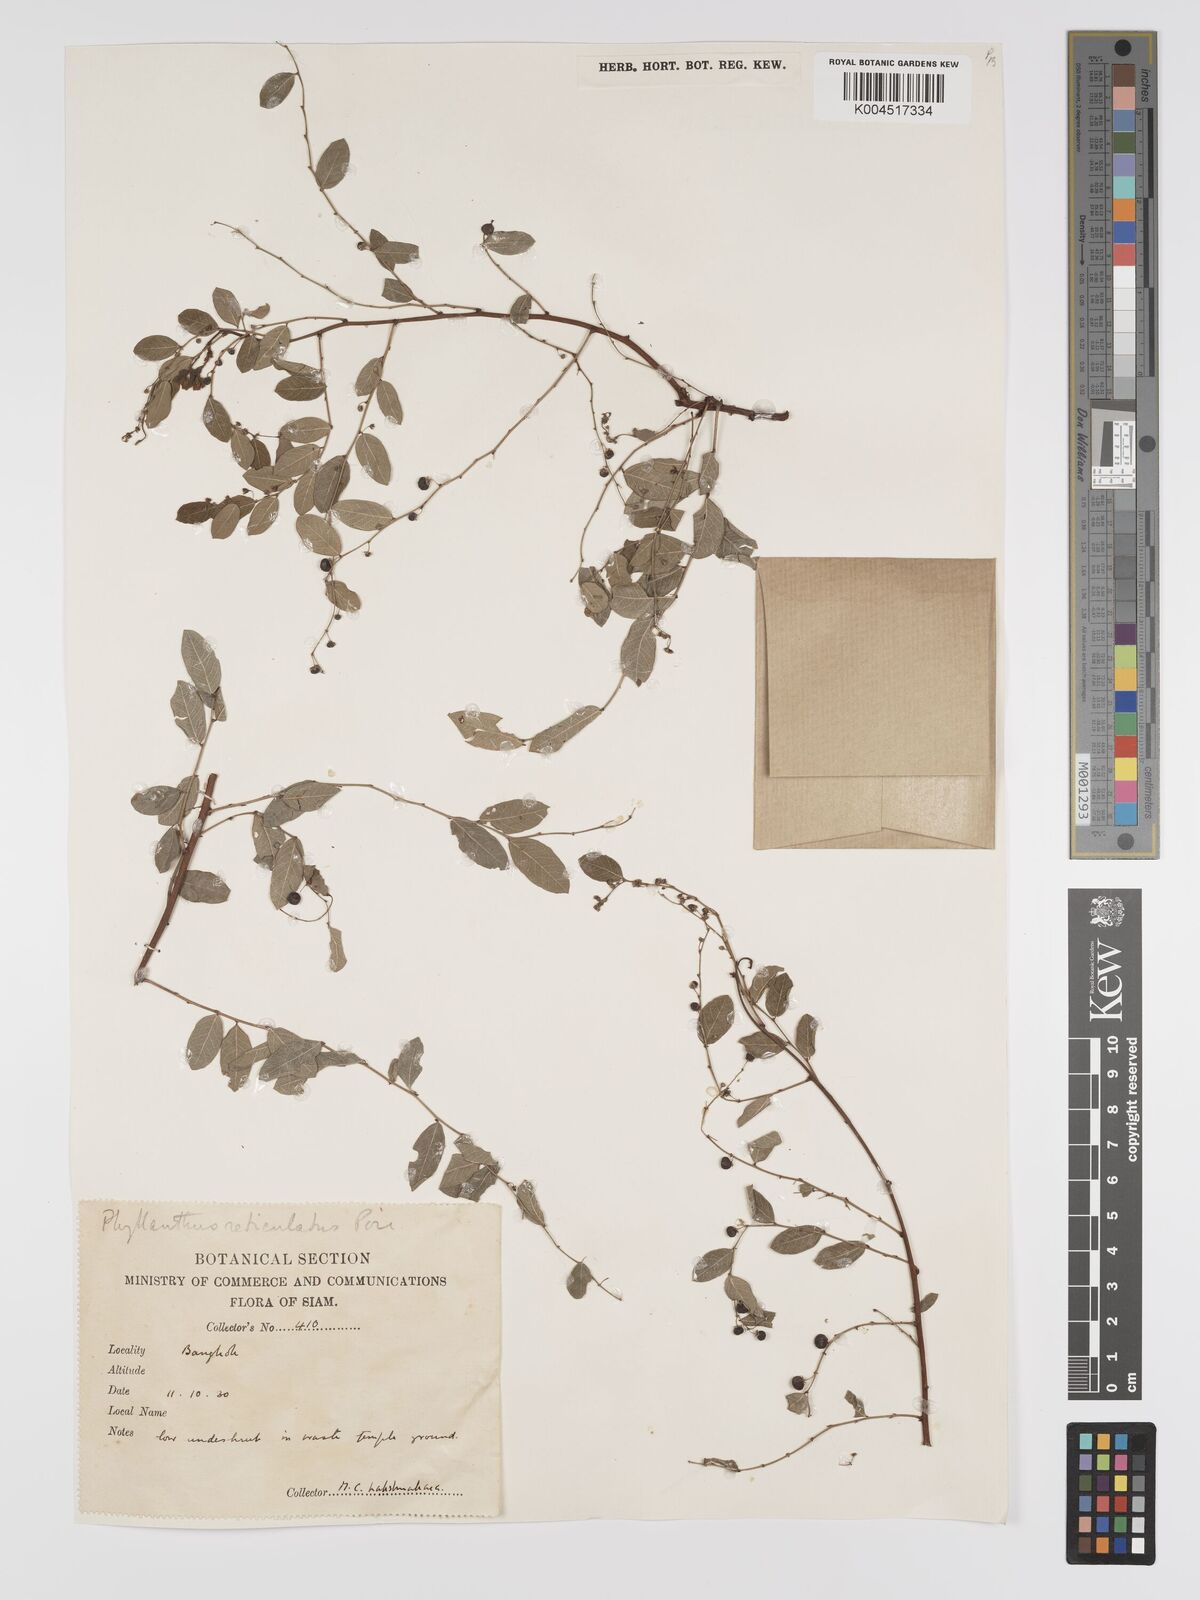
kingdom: Plantae
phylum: Tracheophyta
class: Magnoliopsida
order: Malpighiales
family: Phyllanthaceae
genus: Phyllanthus
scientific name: Phyllanthus reticulatus
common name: Potato bush
